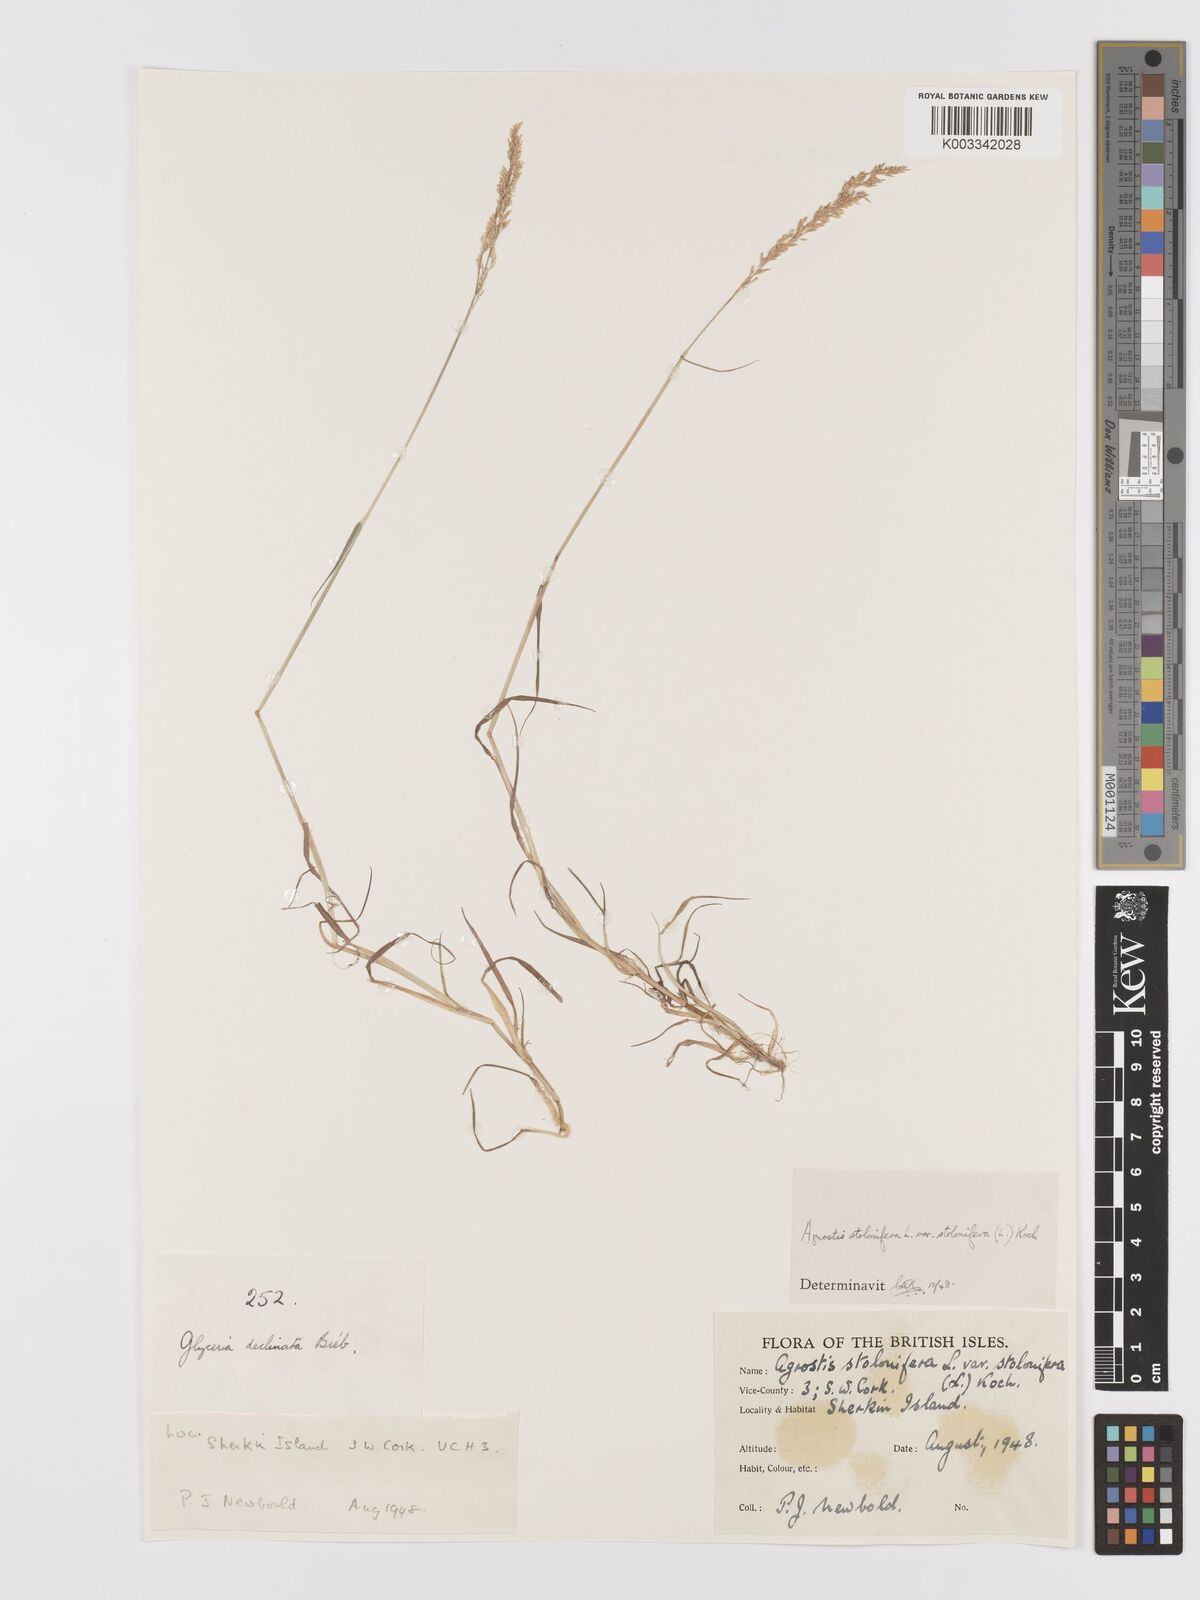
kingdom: Plantae
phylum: Tracheophyta
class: Liliopsida
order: Poales
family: Poaceae
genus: Agrostis
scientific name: Agrostis stolonifera
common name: Creeping bentgrass
